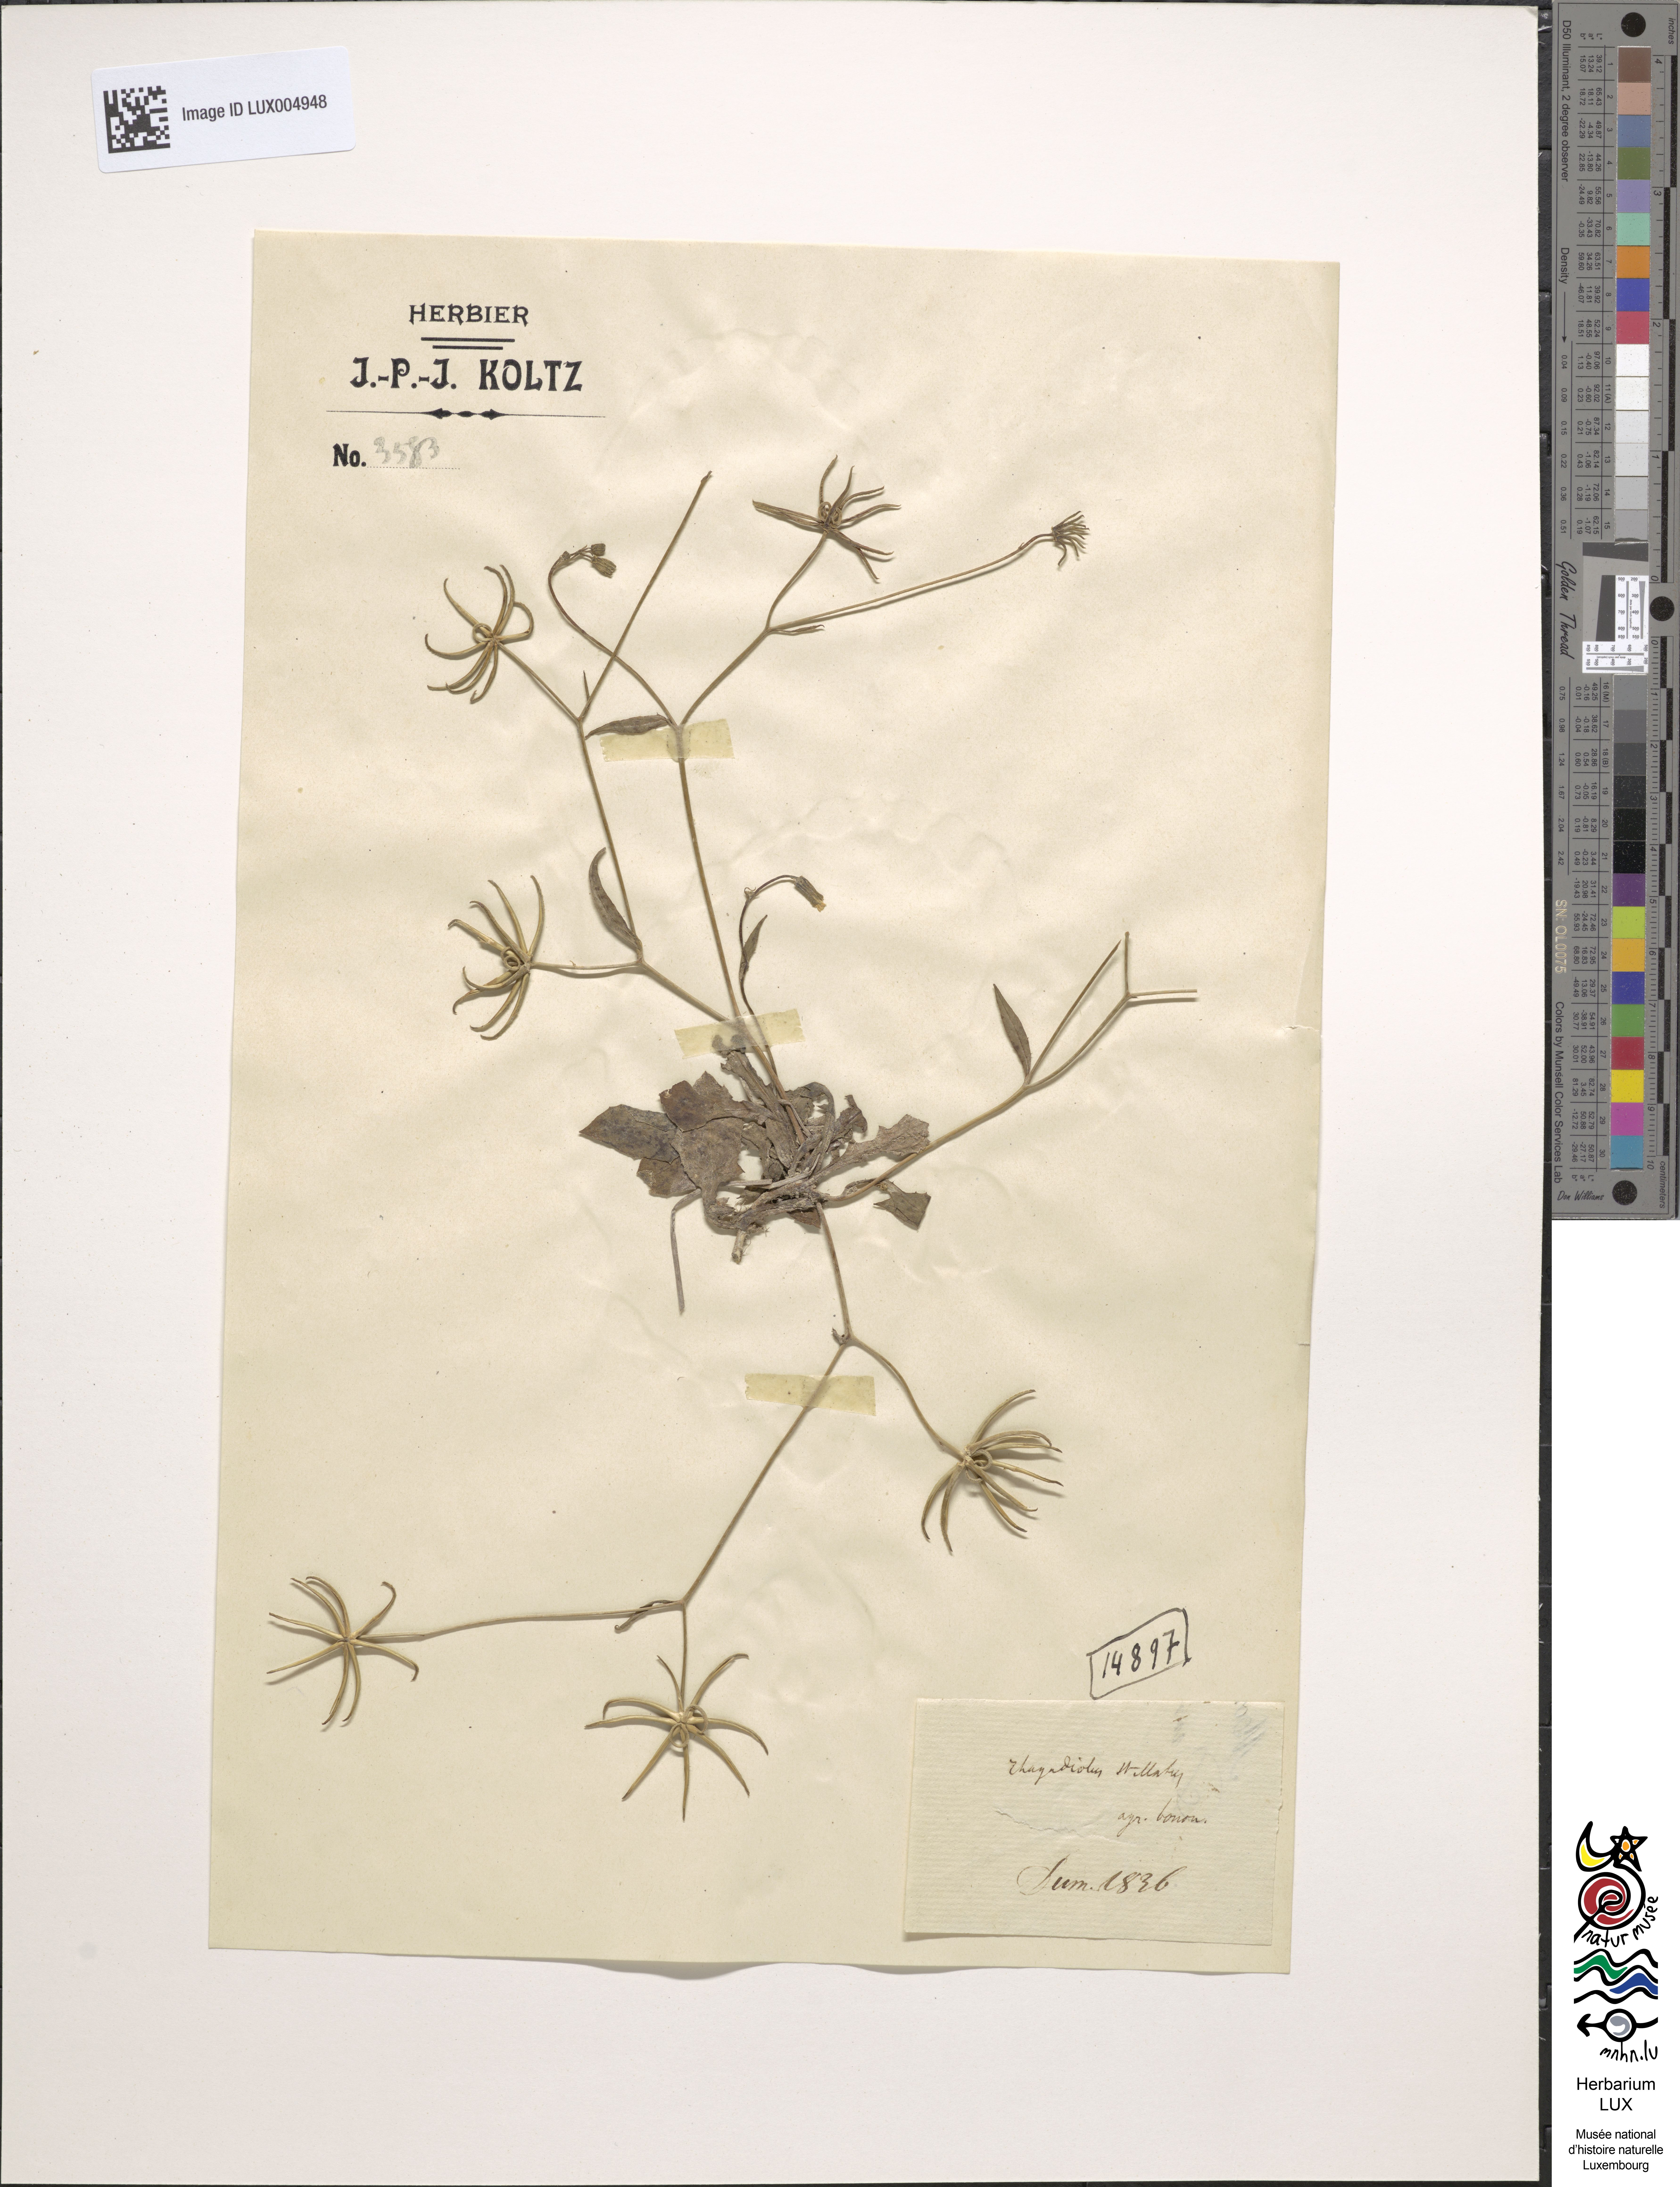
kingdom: Plantae
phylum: Tracheophyta
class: Magnoliopsida
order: Asterales
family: Asteraceae
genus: Rhagadiolus
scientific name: Rhagadiolus stellatus
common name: Star hawkbit
